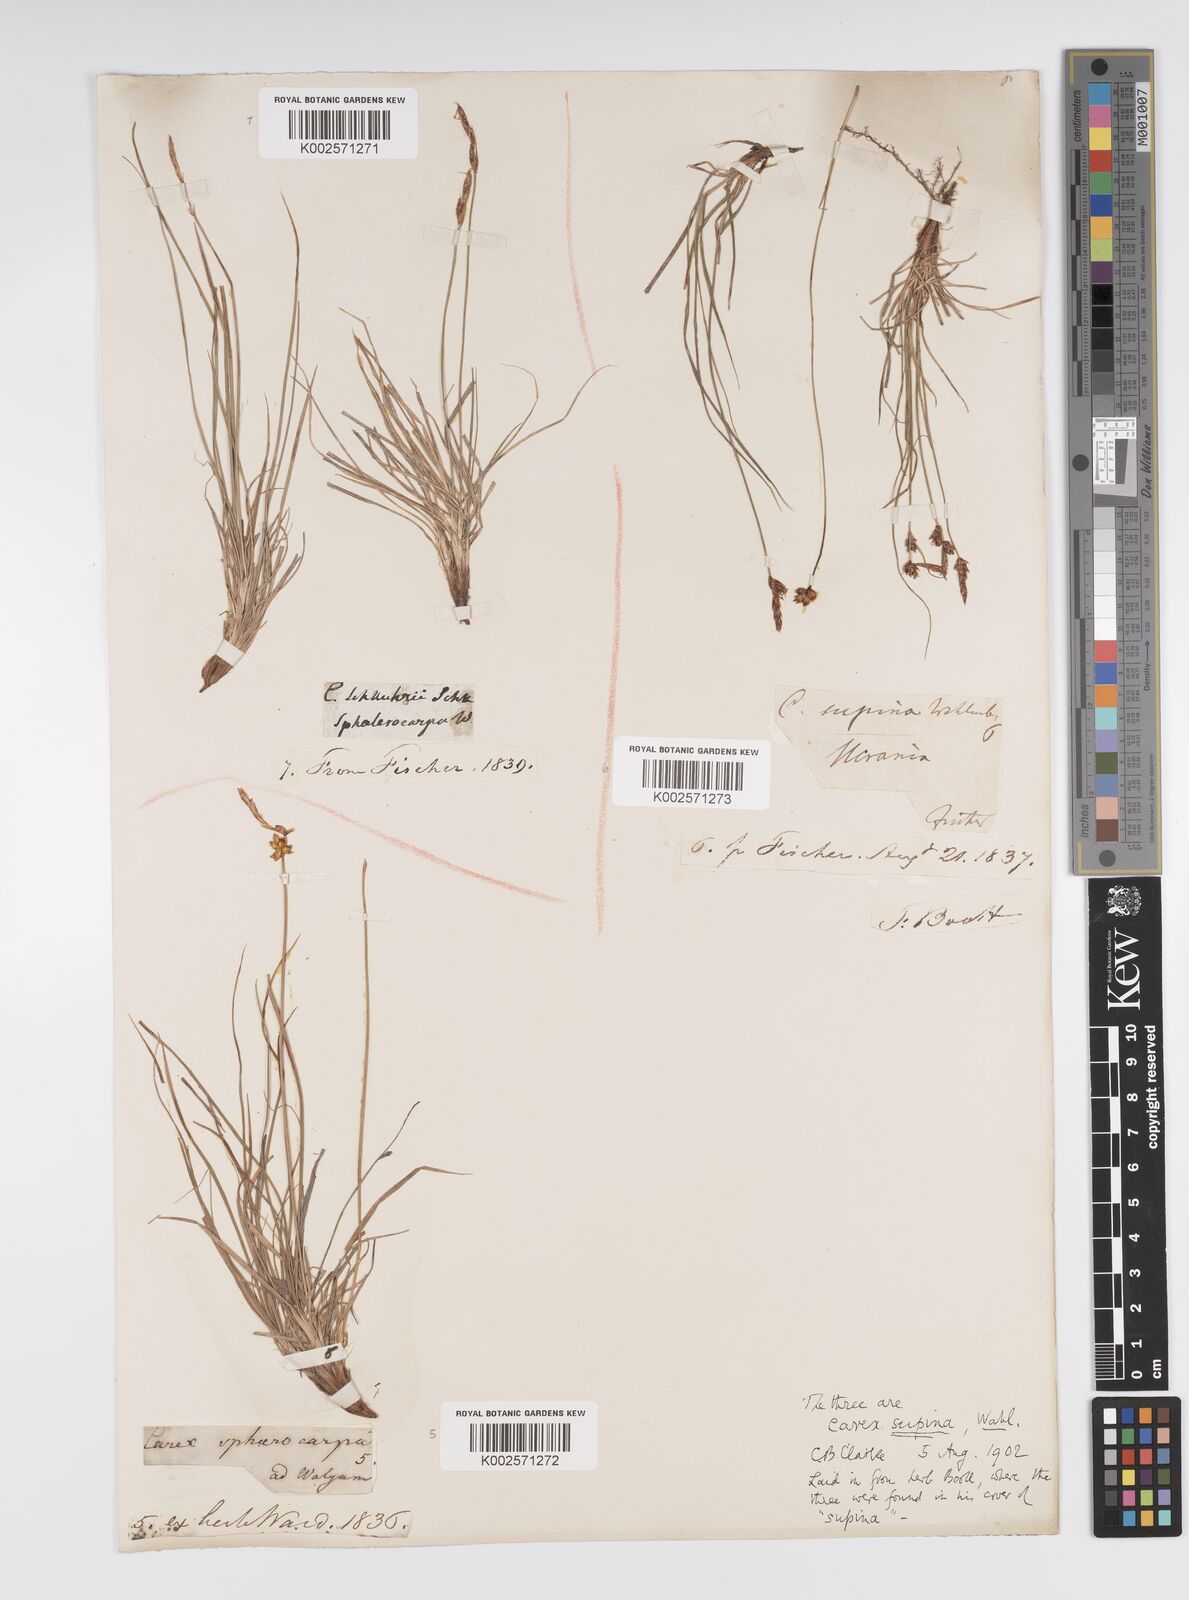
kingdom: Plantae
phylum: Tracheophyta
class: Liliopsida
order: Poales
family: Cyperaceae
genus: Carex
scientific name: Carex supina
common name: Lying-back sedge
